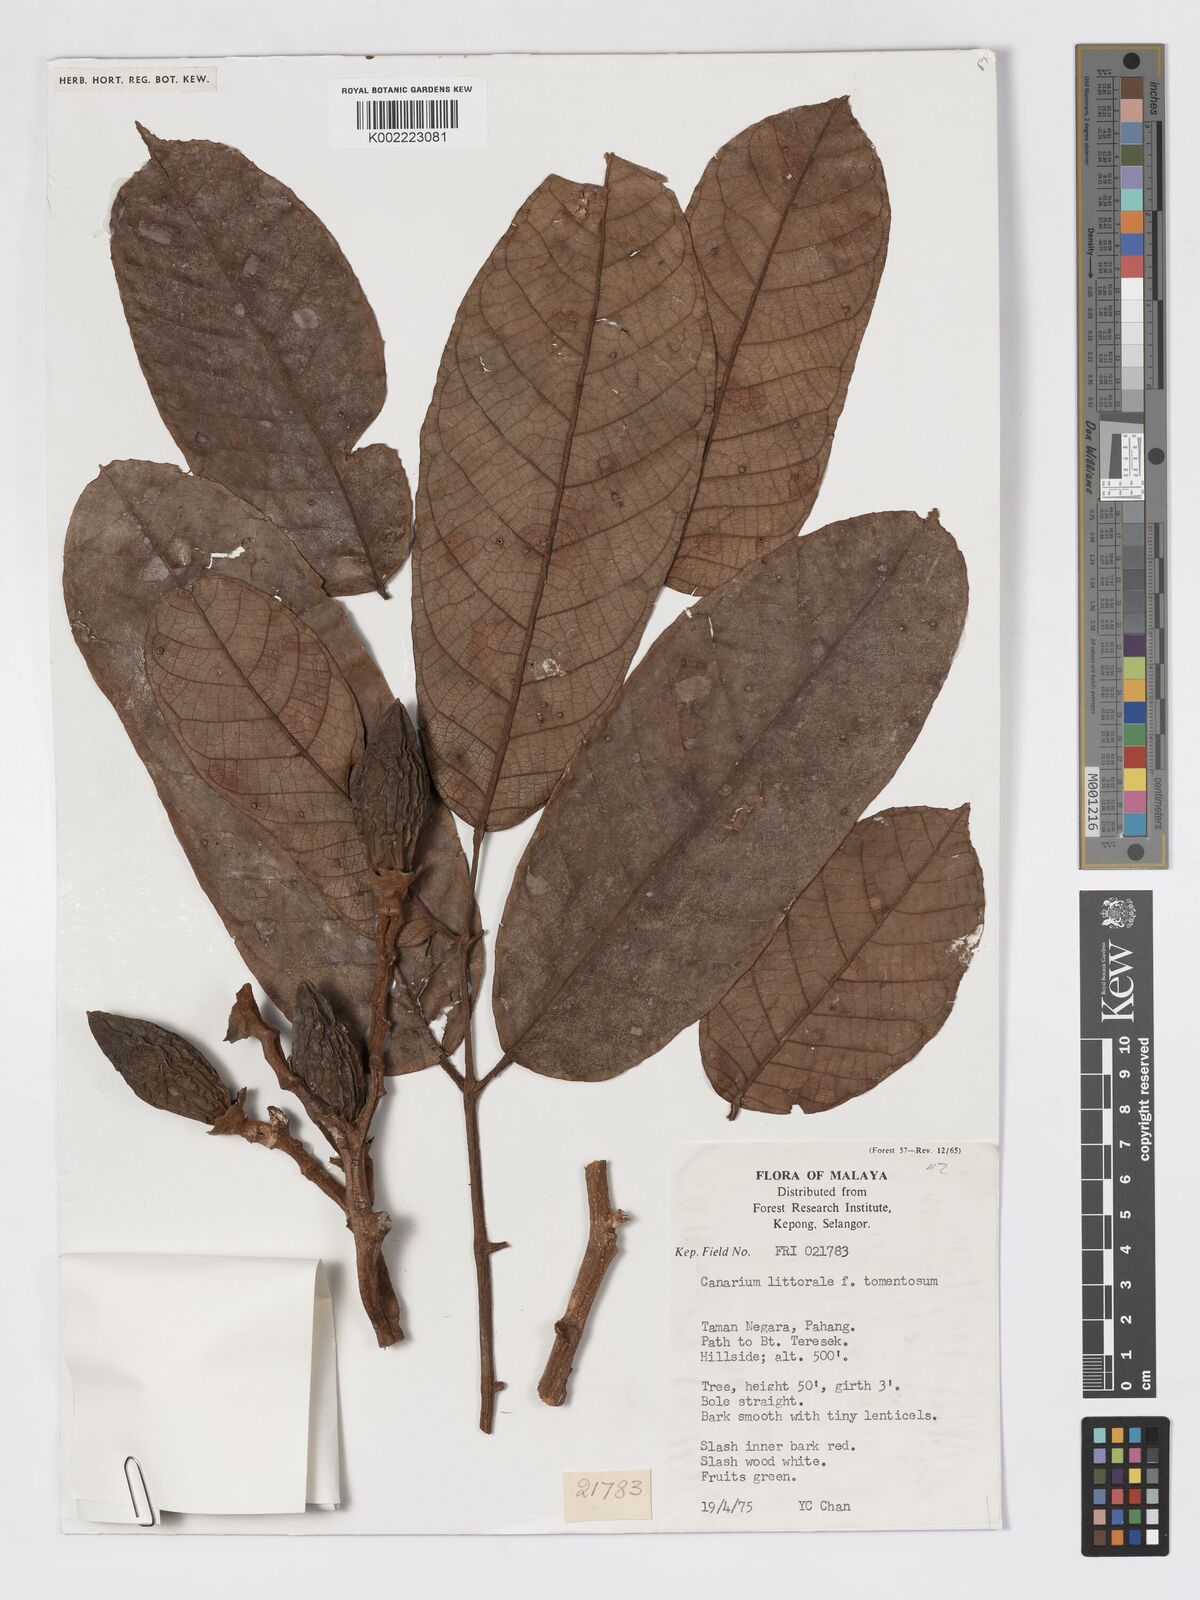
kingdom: Plantae
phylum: Tracheophyta
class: Magnoliopsida
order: Sapindales
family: Burseraceae
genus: Canarium
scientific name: Canarium littorale
